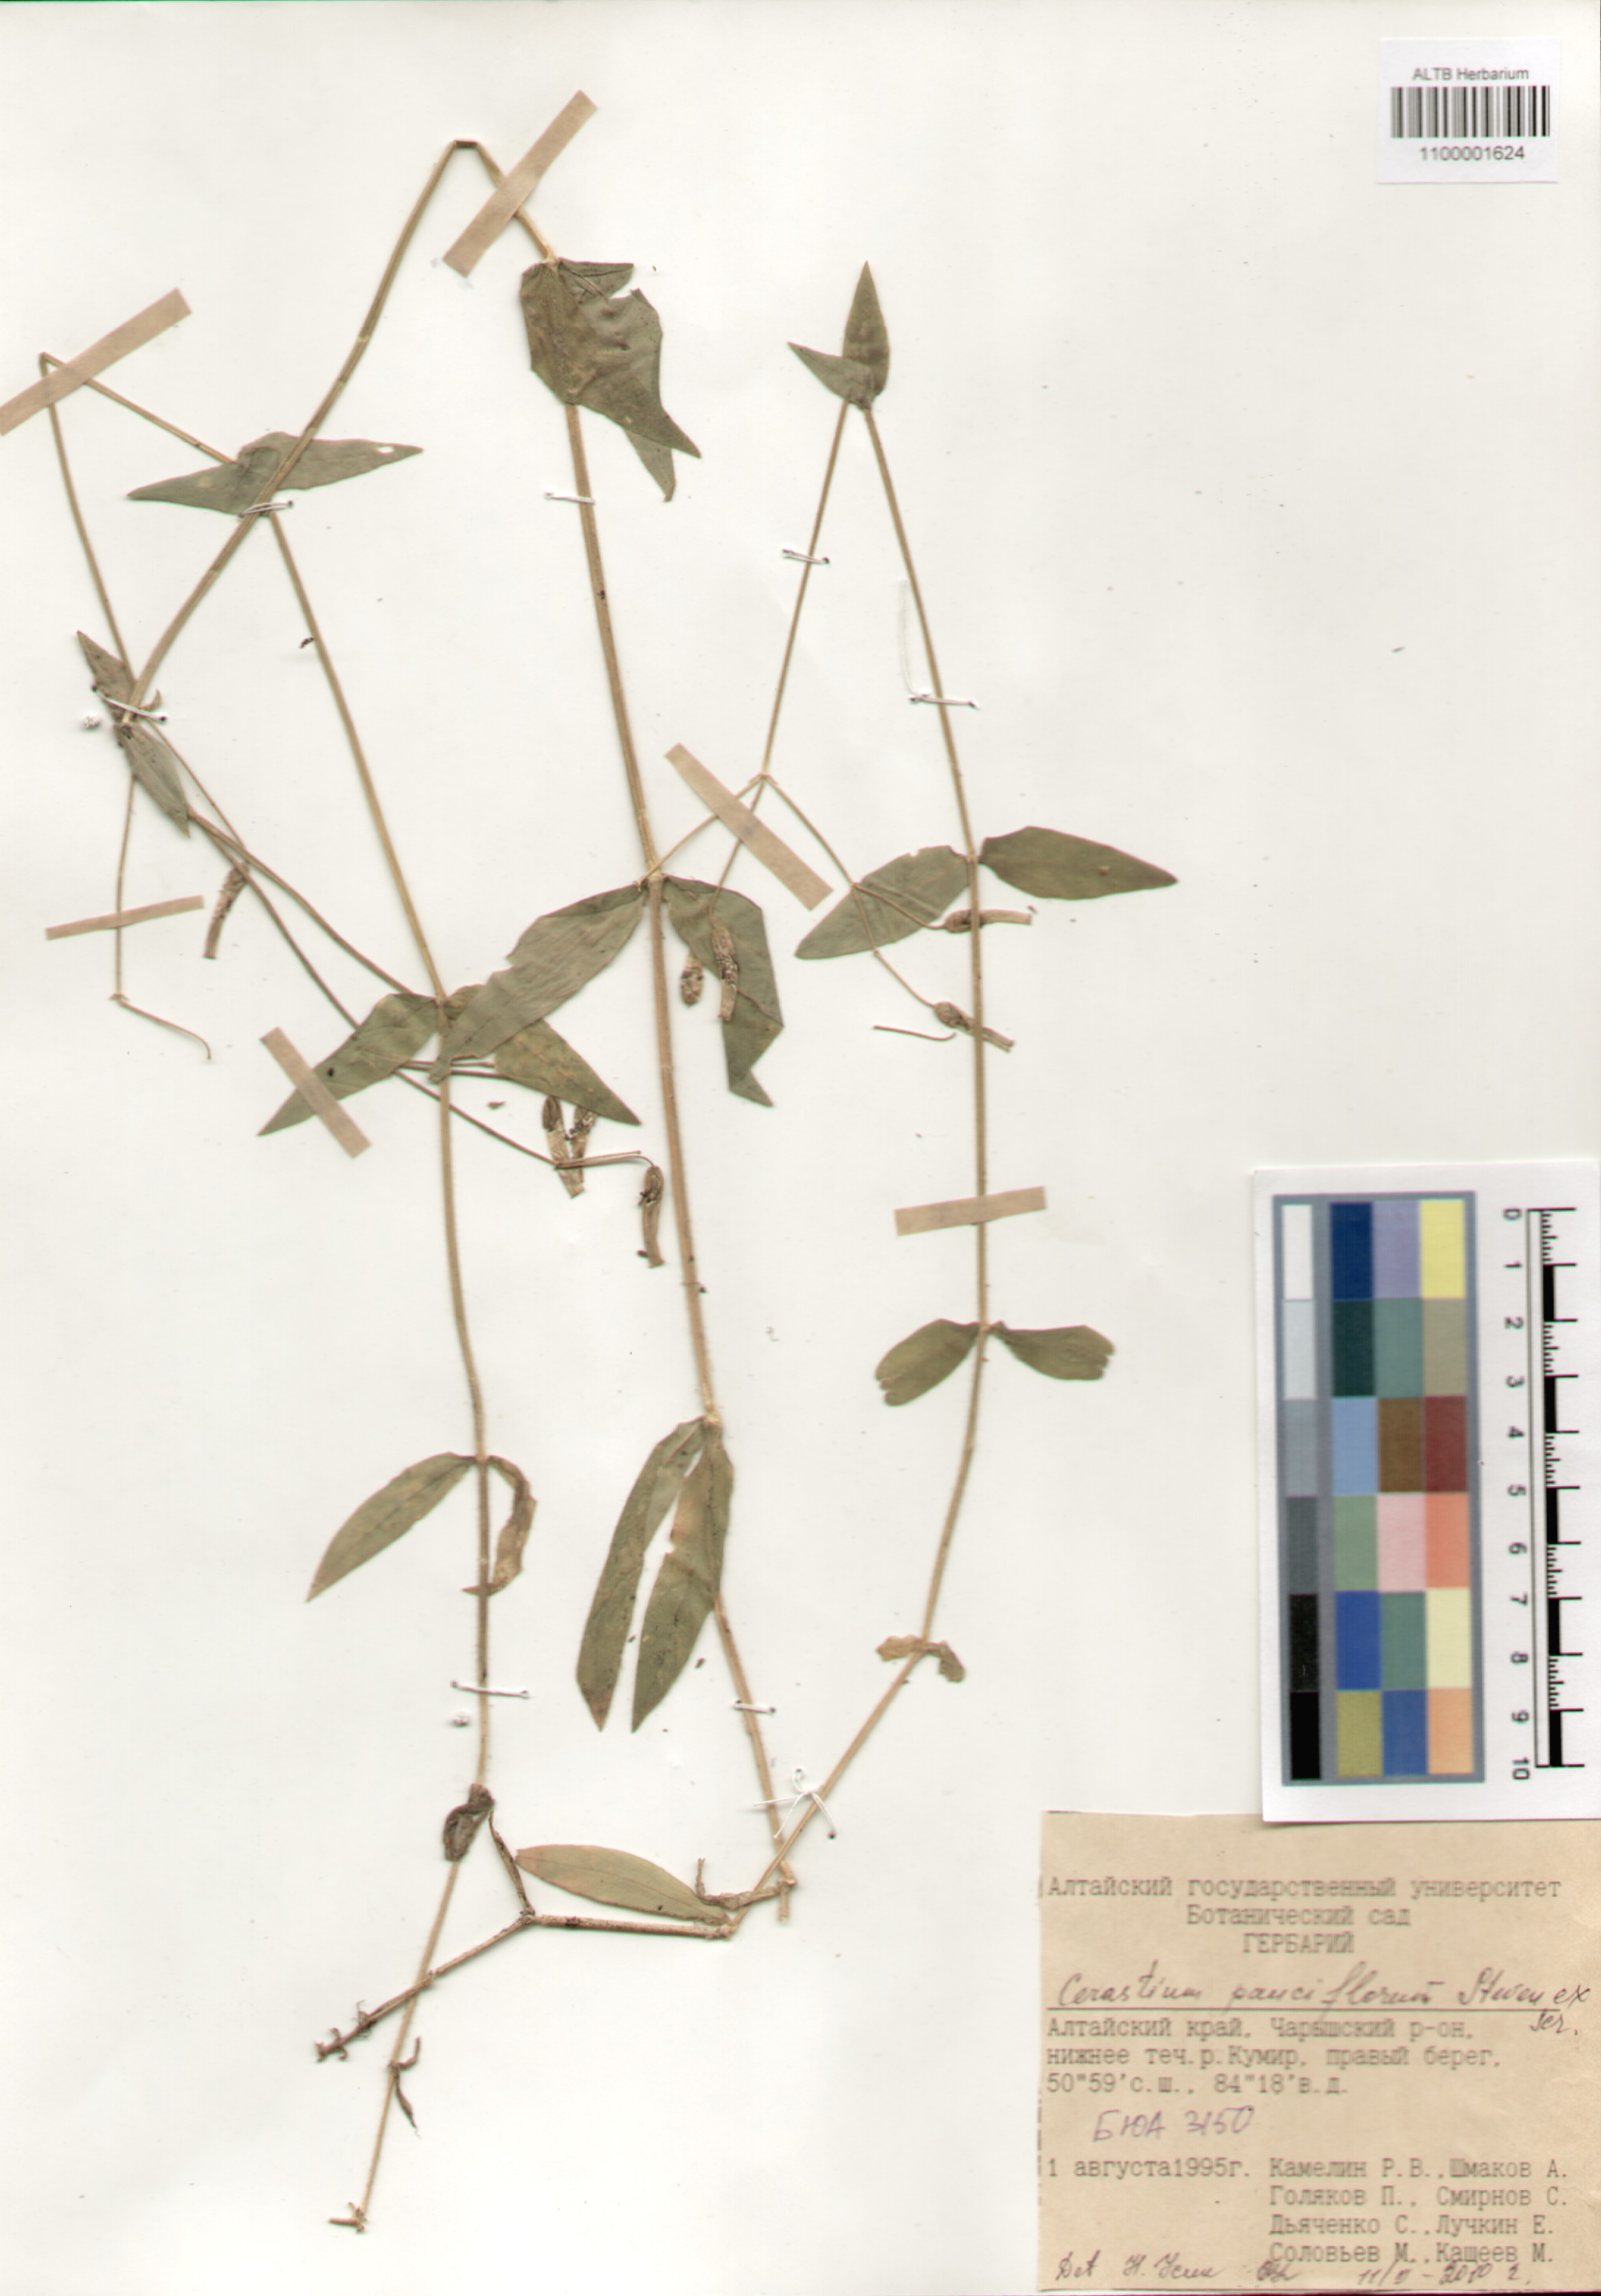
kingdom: Plantae
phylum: Tracheophyta
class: Magnoliopsida
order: Caryophyllales
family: Caryophyllaceae
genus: Cerastium
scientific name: Cerastium pauciflorum
